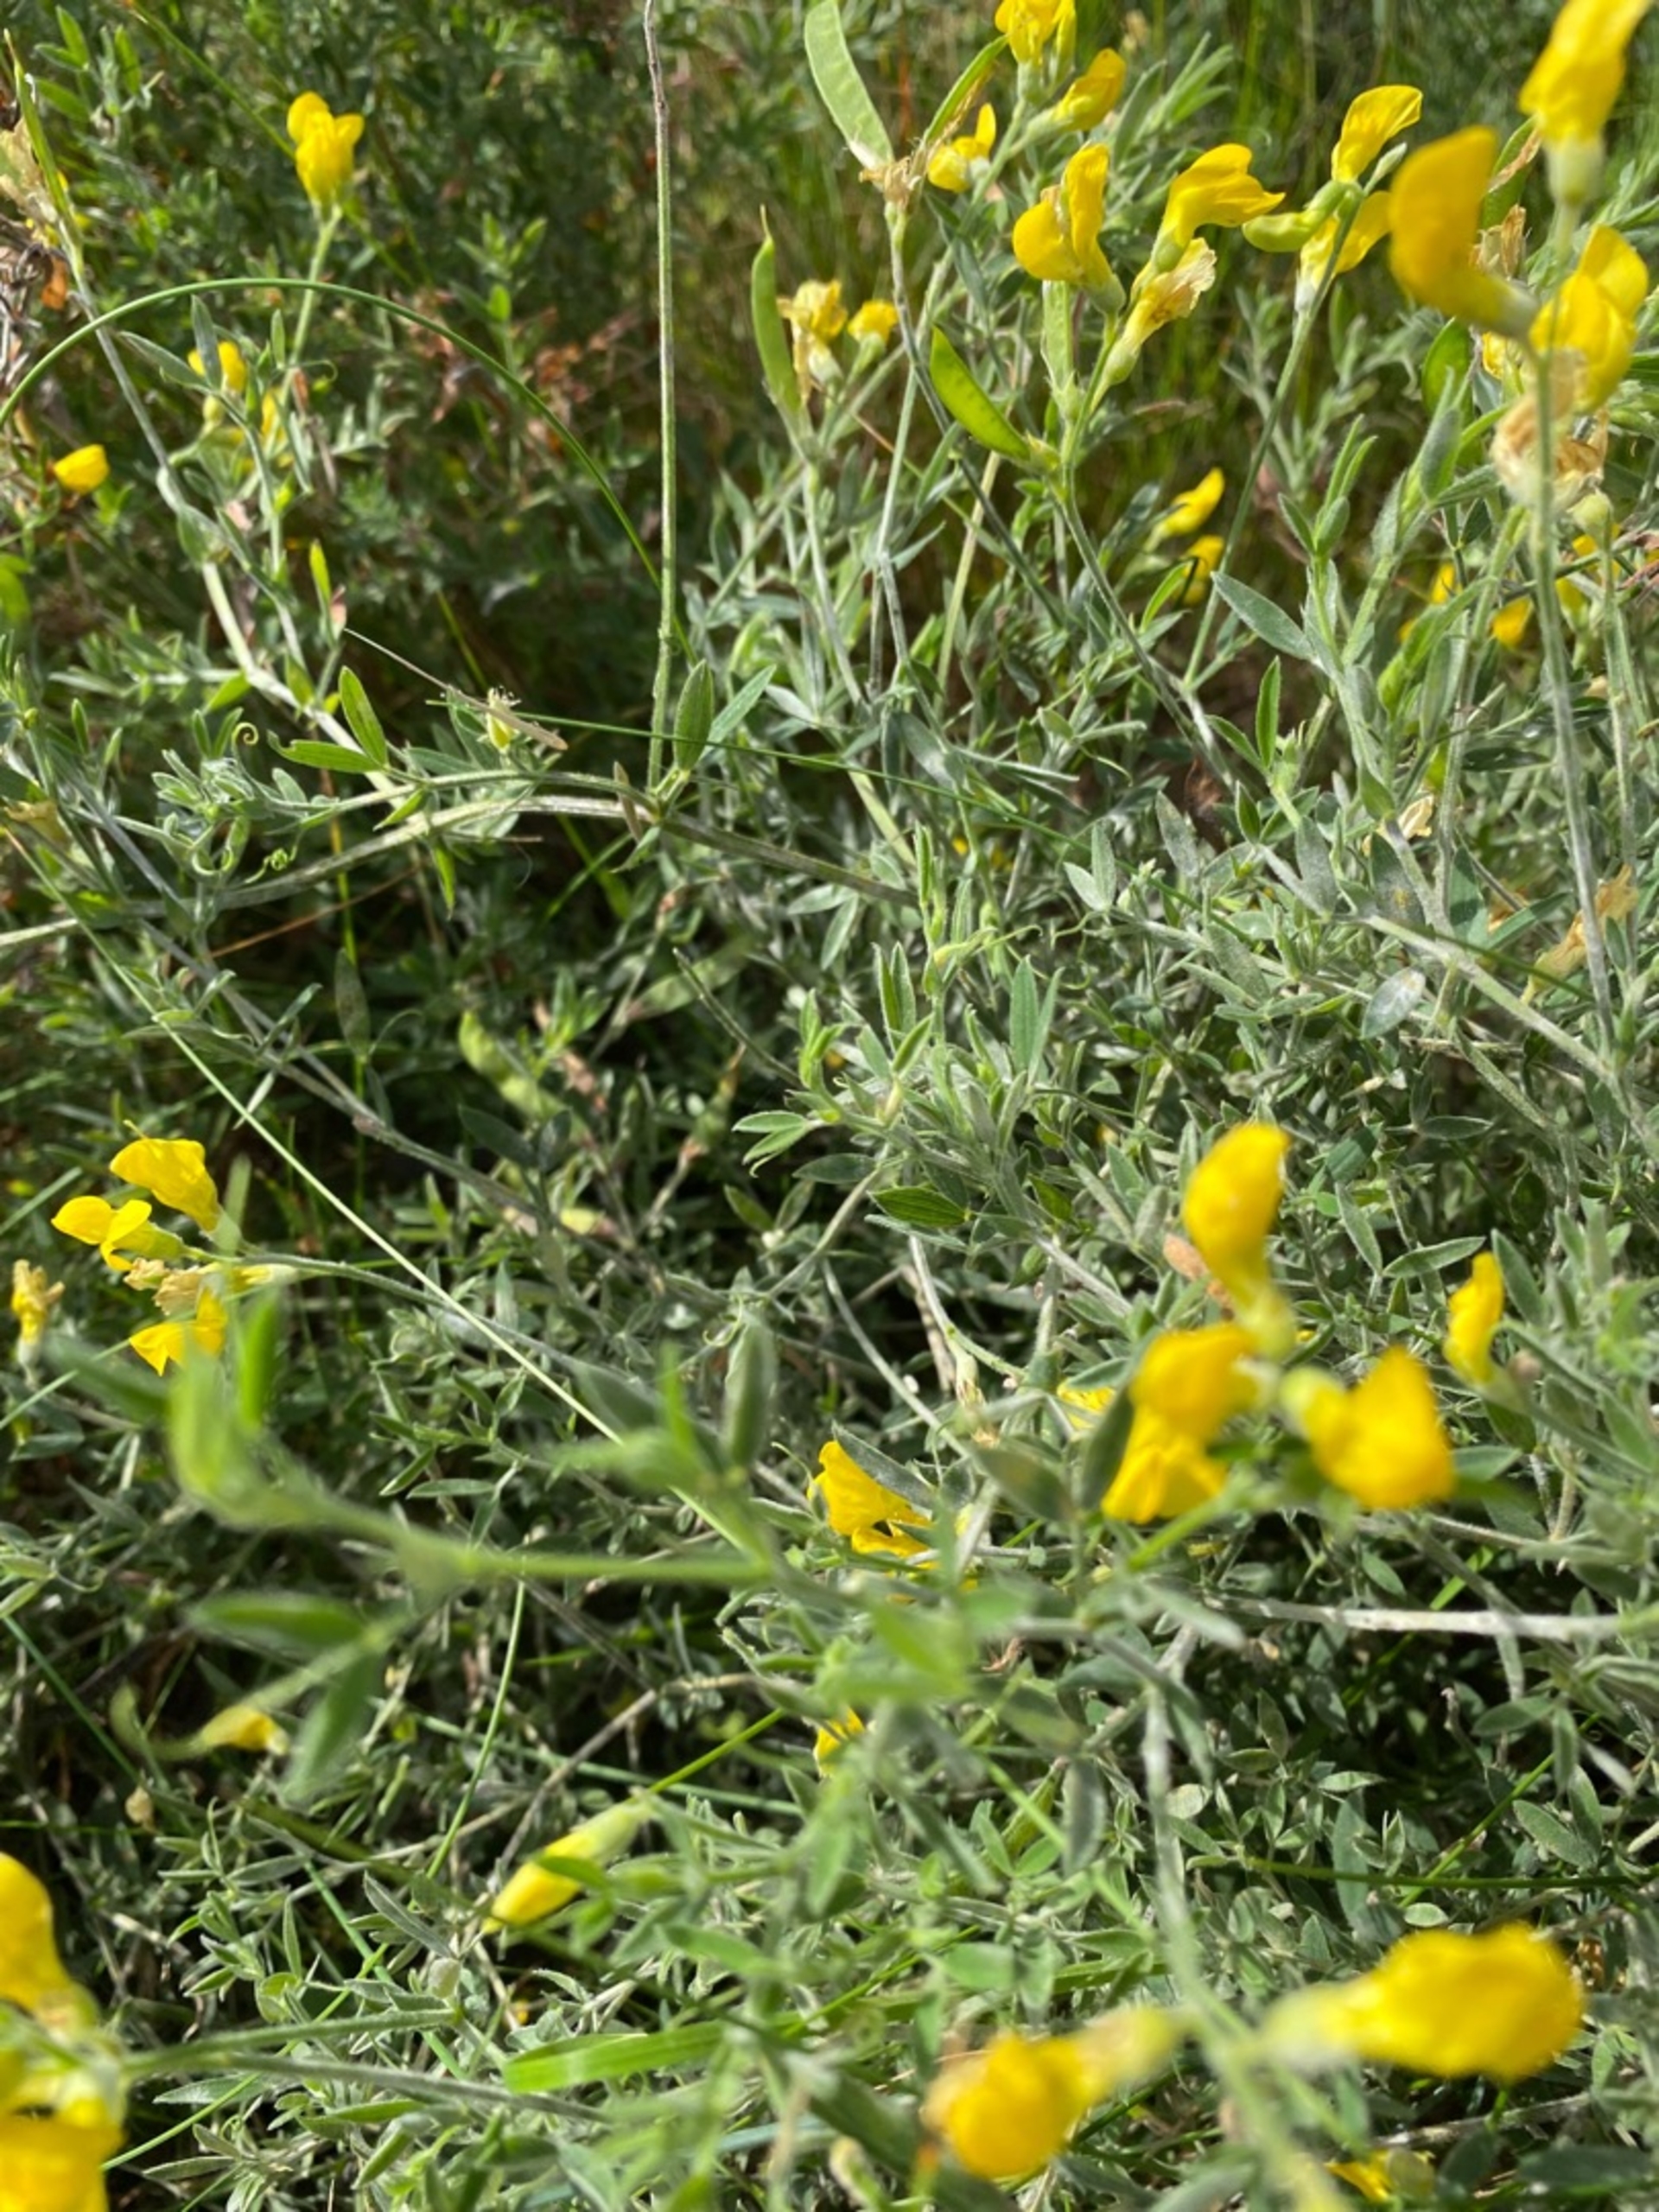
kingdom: Plantae
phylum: Tracheophyta
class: Magnoliopsida
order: Fabales
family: Fabaceae
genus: Lathyrus
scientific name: Lathyrus pratensis
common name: Gul fladbælg
